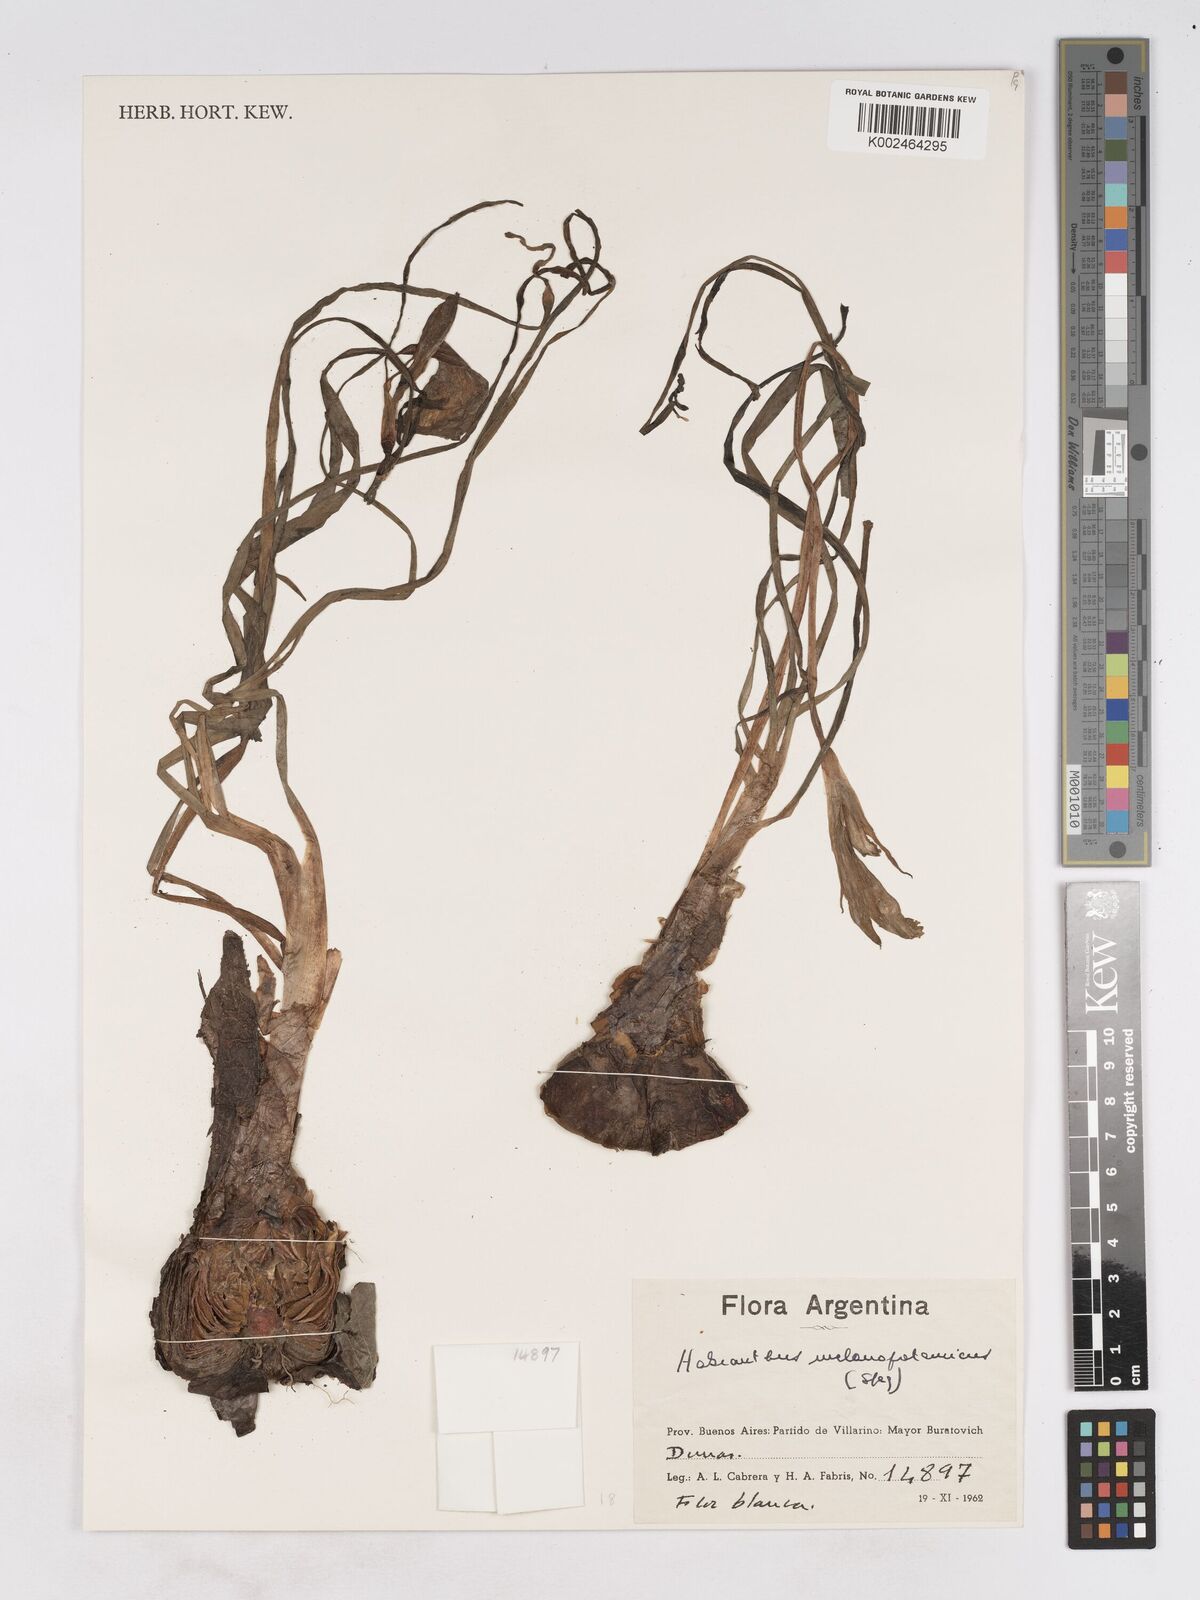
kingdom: Plantae
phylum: Tracheophyta
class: Liliopsida
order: Asparagales
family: Amaryllidaceae
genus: Zephyranthes
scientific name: Zephyranthes jamesonii
